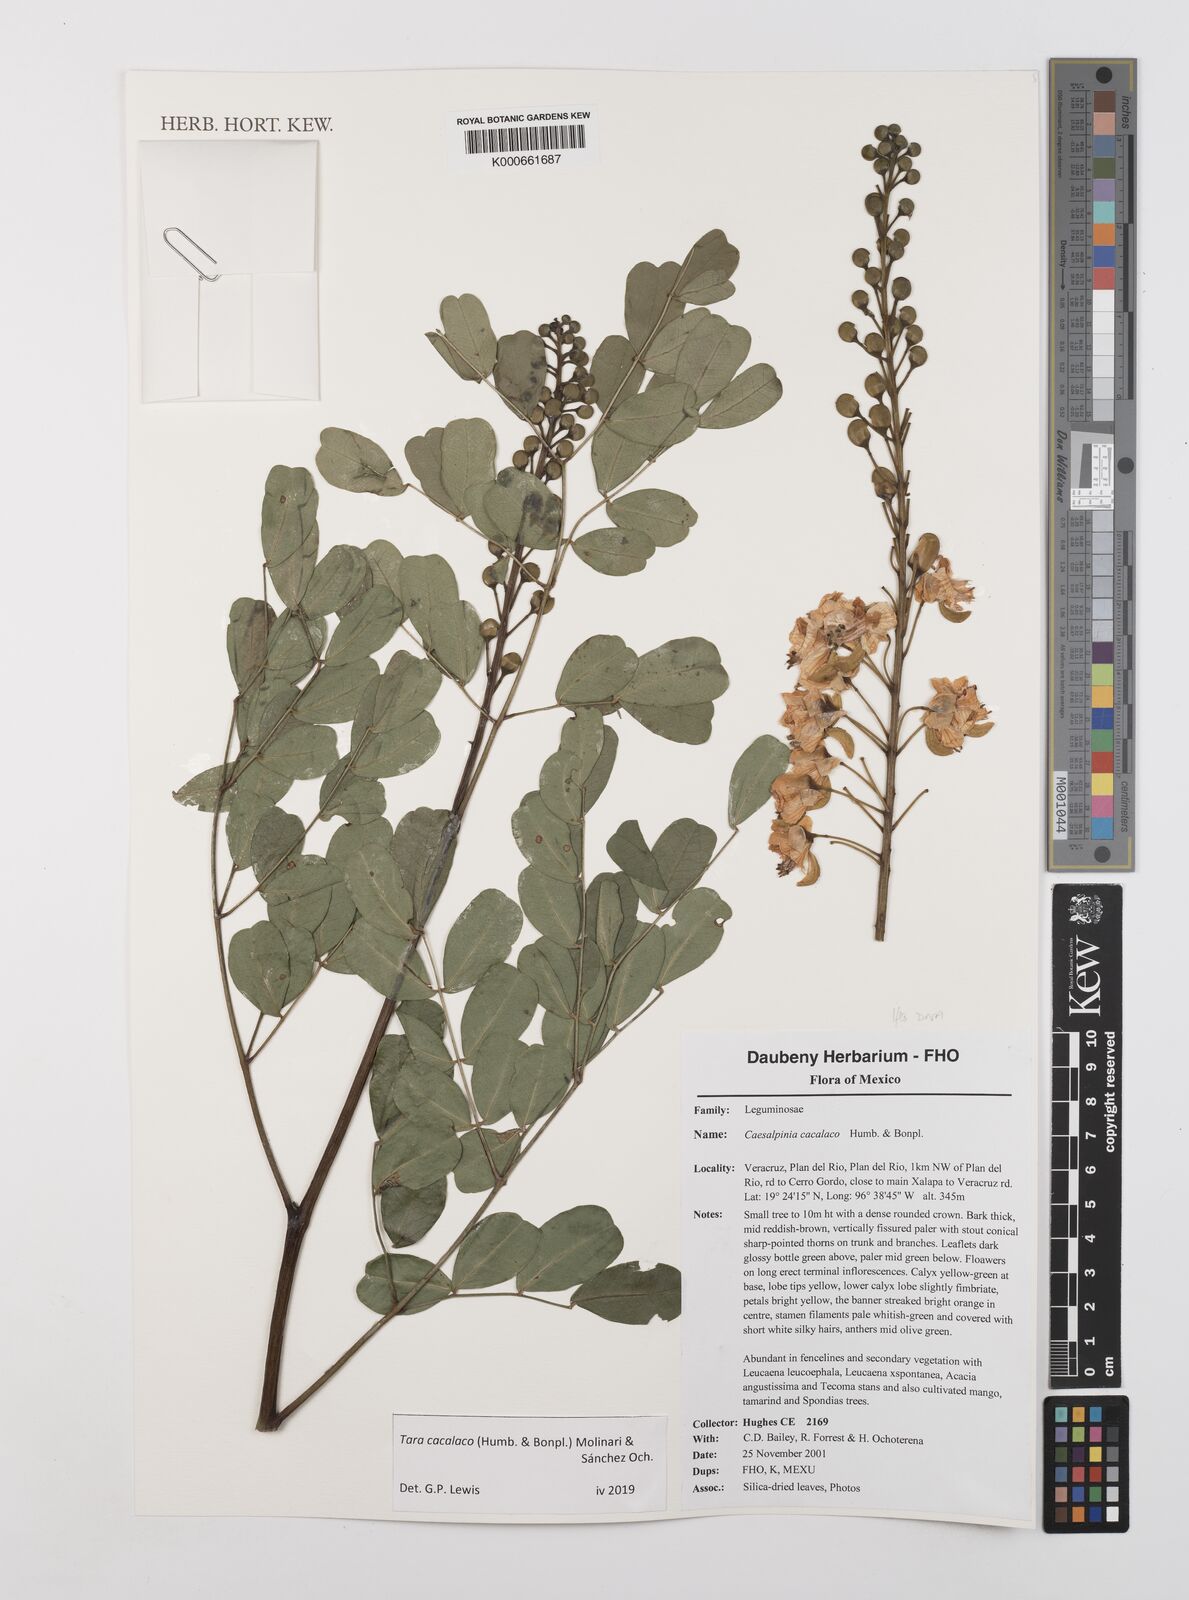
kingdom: Plantae
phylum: Tracheophyta
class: Magnoliopsida
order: Fabales
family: Fabaceae
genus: Tara
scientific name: Tara cacalaco
